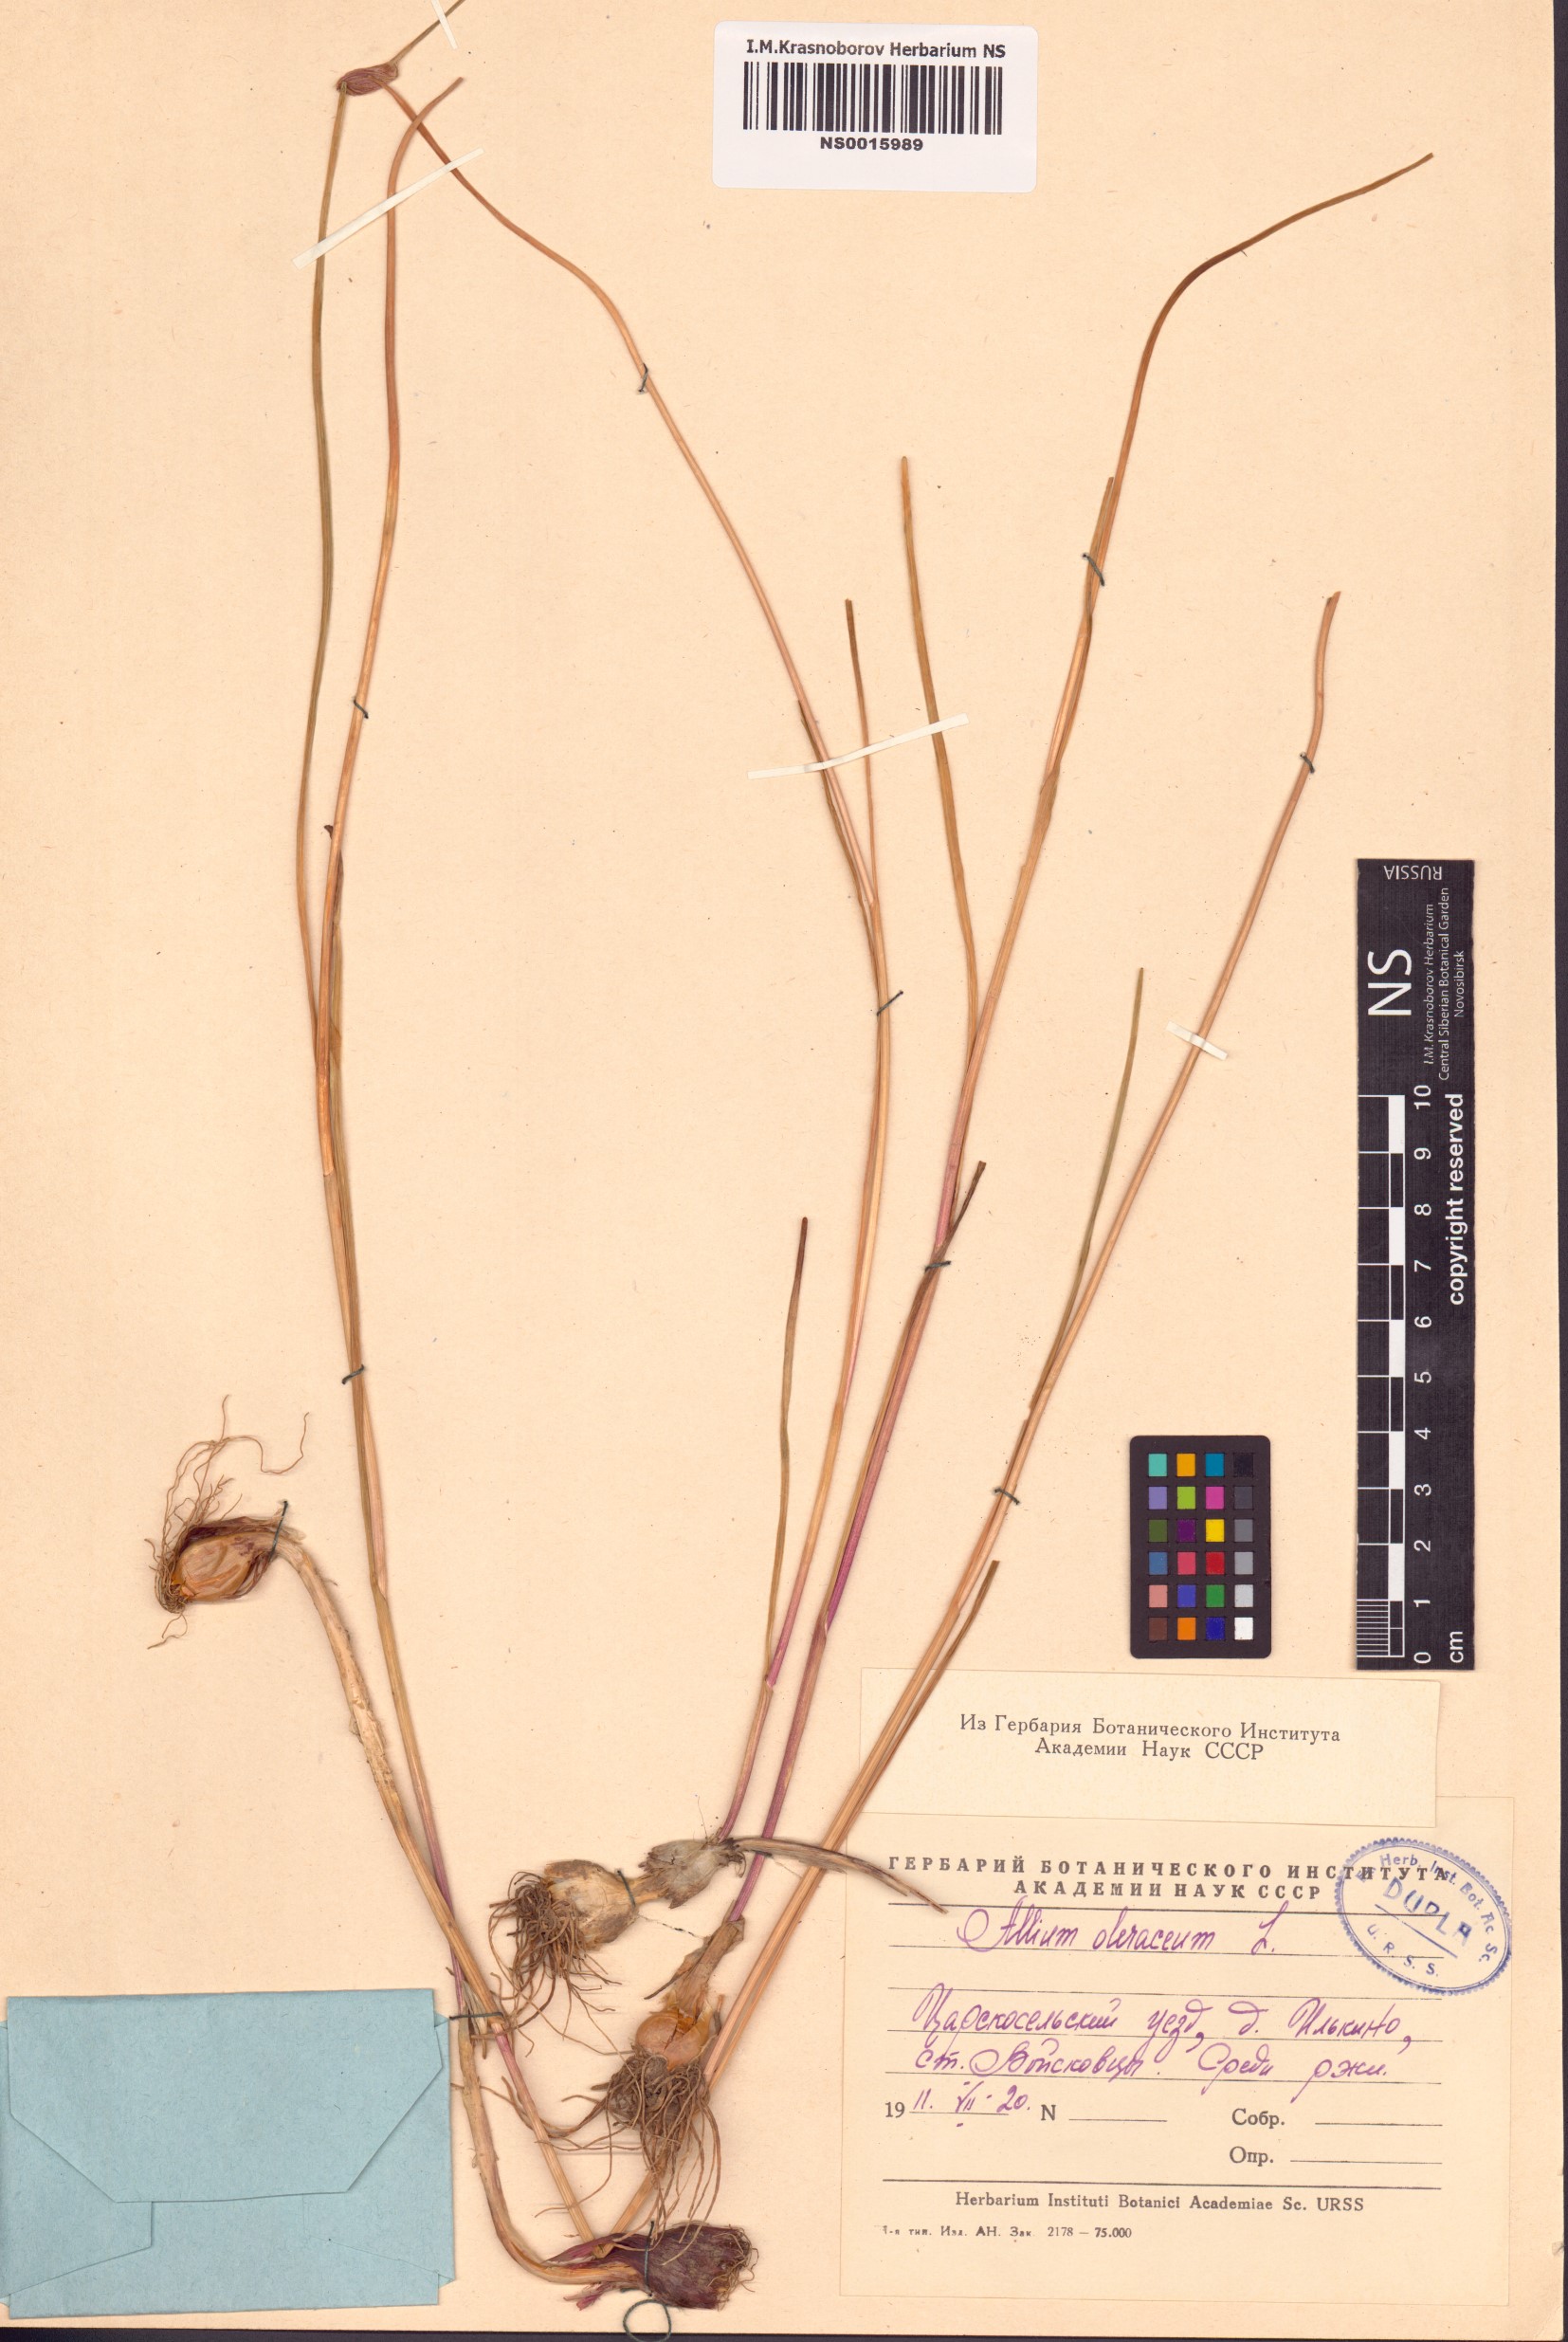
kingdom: Plantae
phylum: Tracheophyta
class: Liliopsida
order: Asparagales
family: Amaryllidaceae
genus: Allium
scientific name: Allium oleraceum
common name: Field garlic
